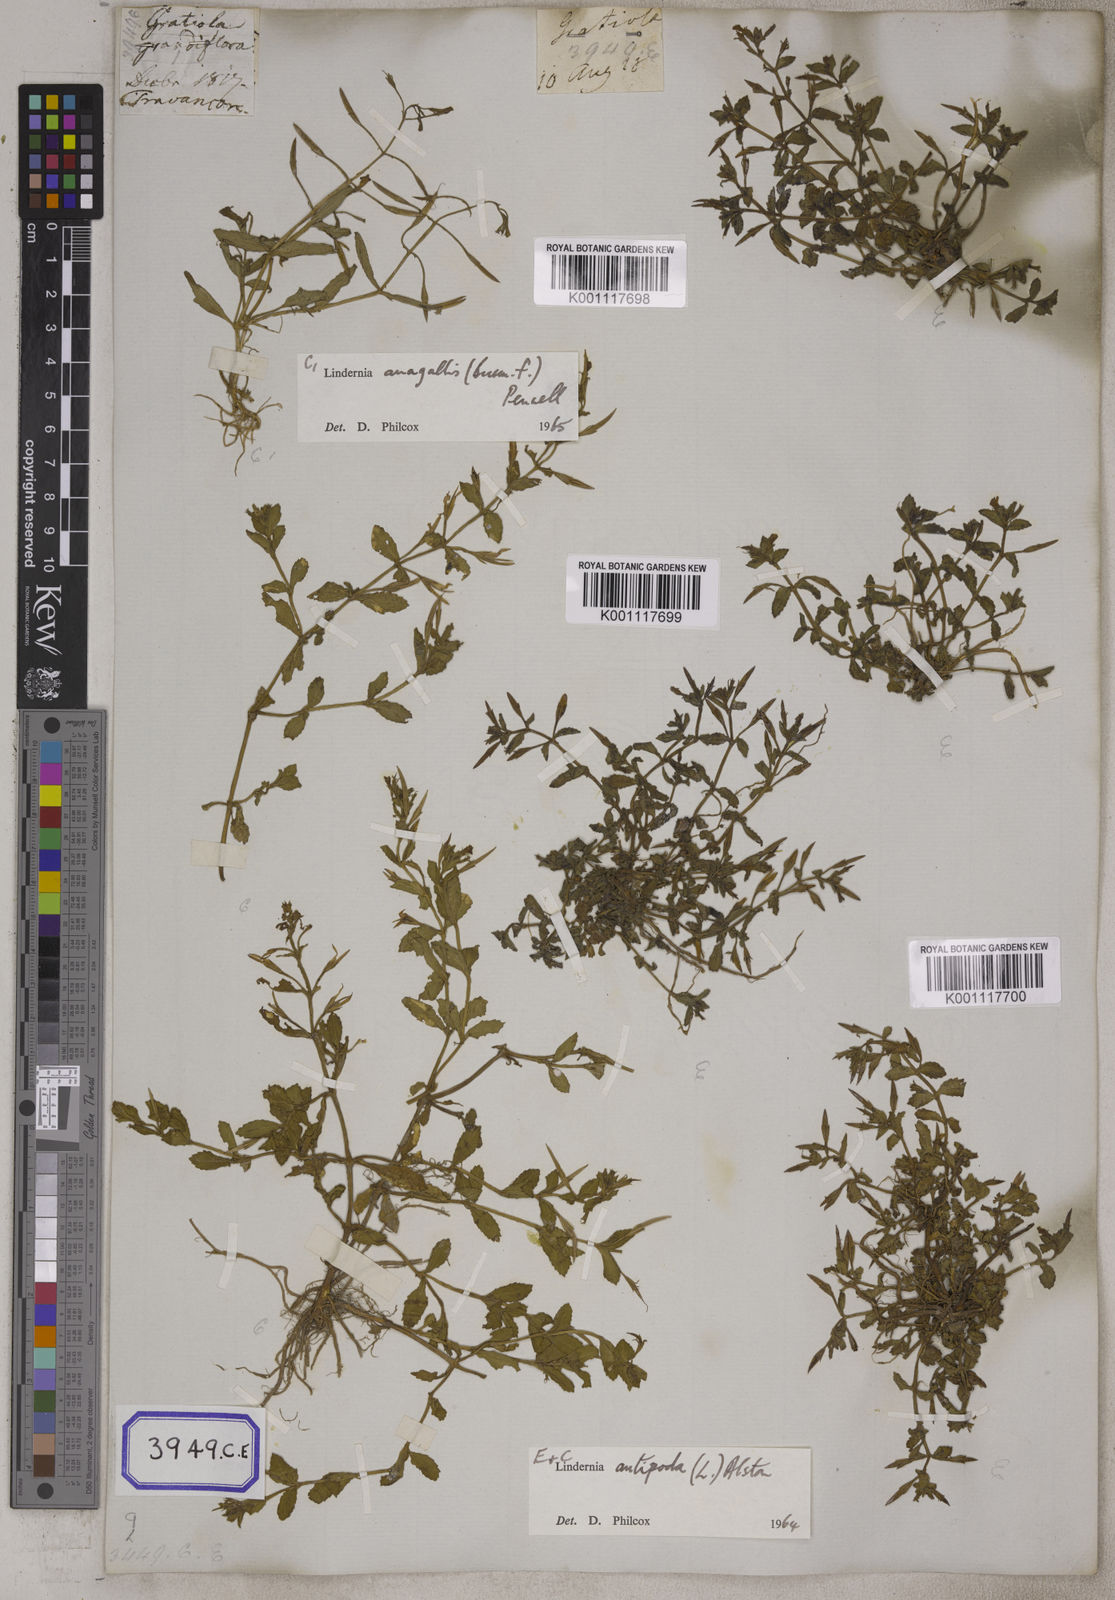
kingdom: Plantae
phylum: Tracheophyta
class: Magnoliopsida
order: Lamiales
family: Linderniaceae
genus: Torenia
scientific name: Torenia anagallis
